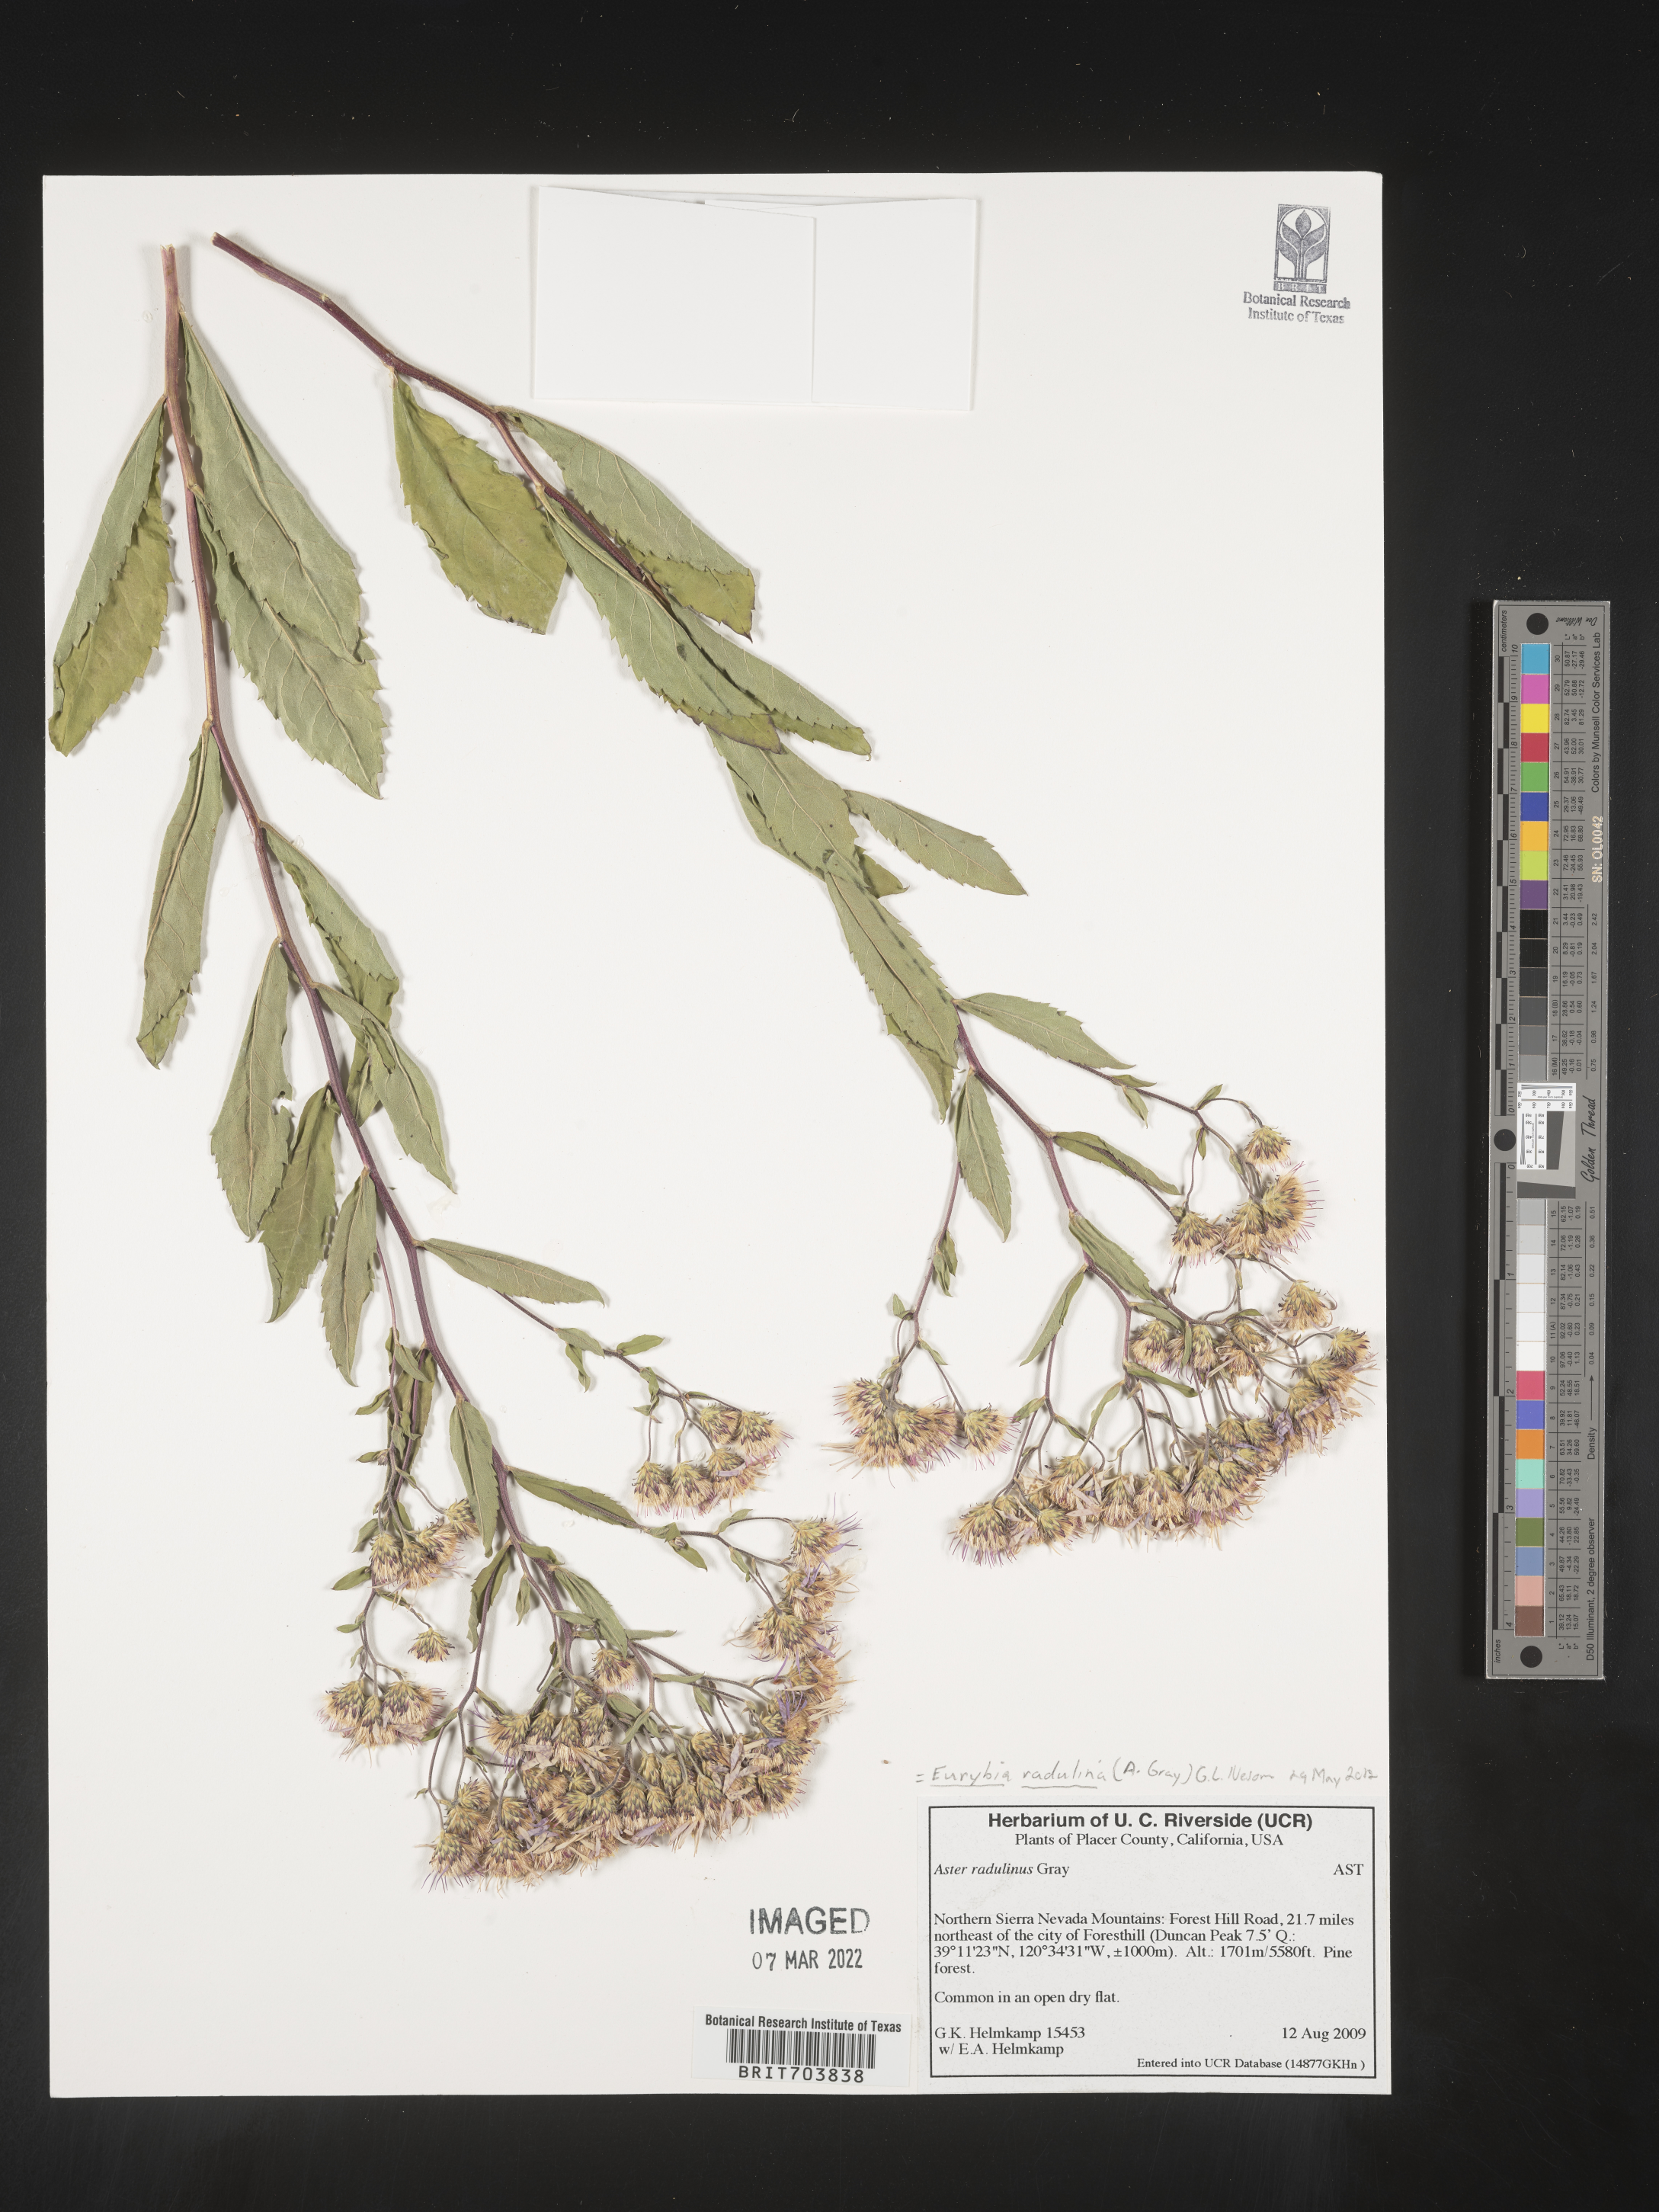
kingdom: Plantae
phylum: Tracheophyta
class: Magnoliopsida
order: Asterales
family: Asteraceae
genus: Eurybia
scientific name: Eurybia radulina
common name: Rough-leaved aster
